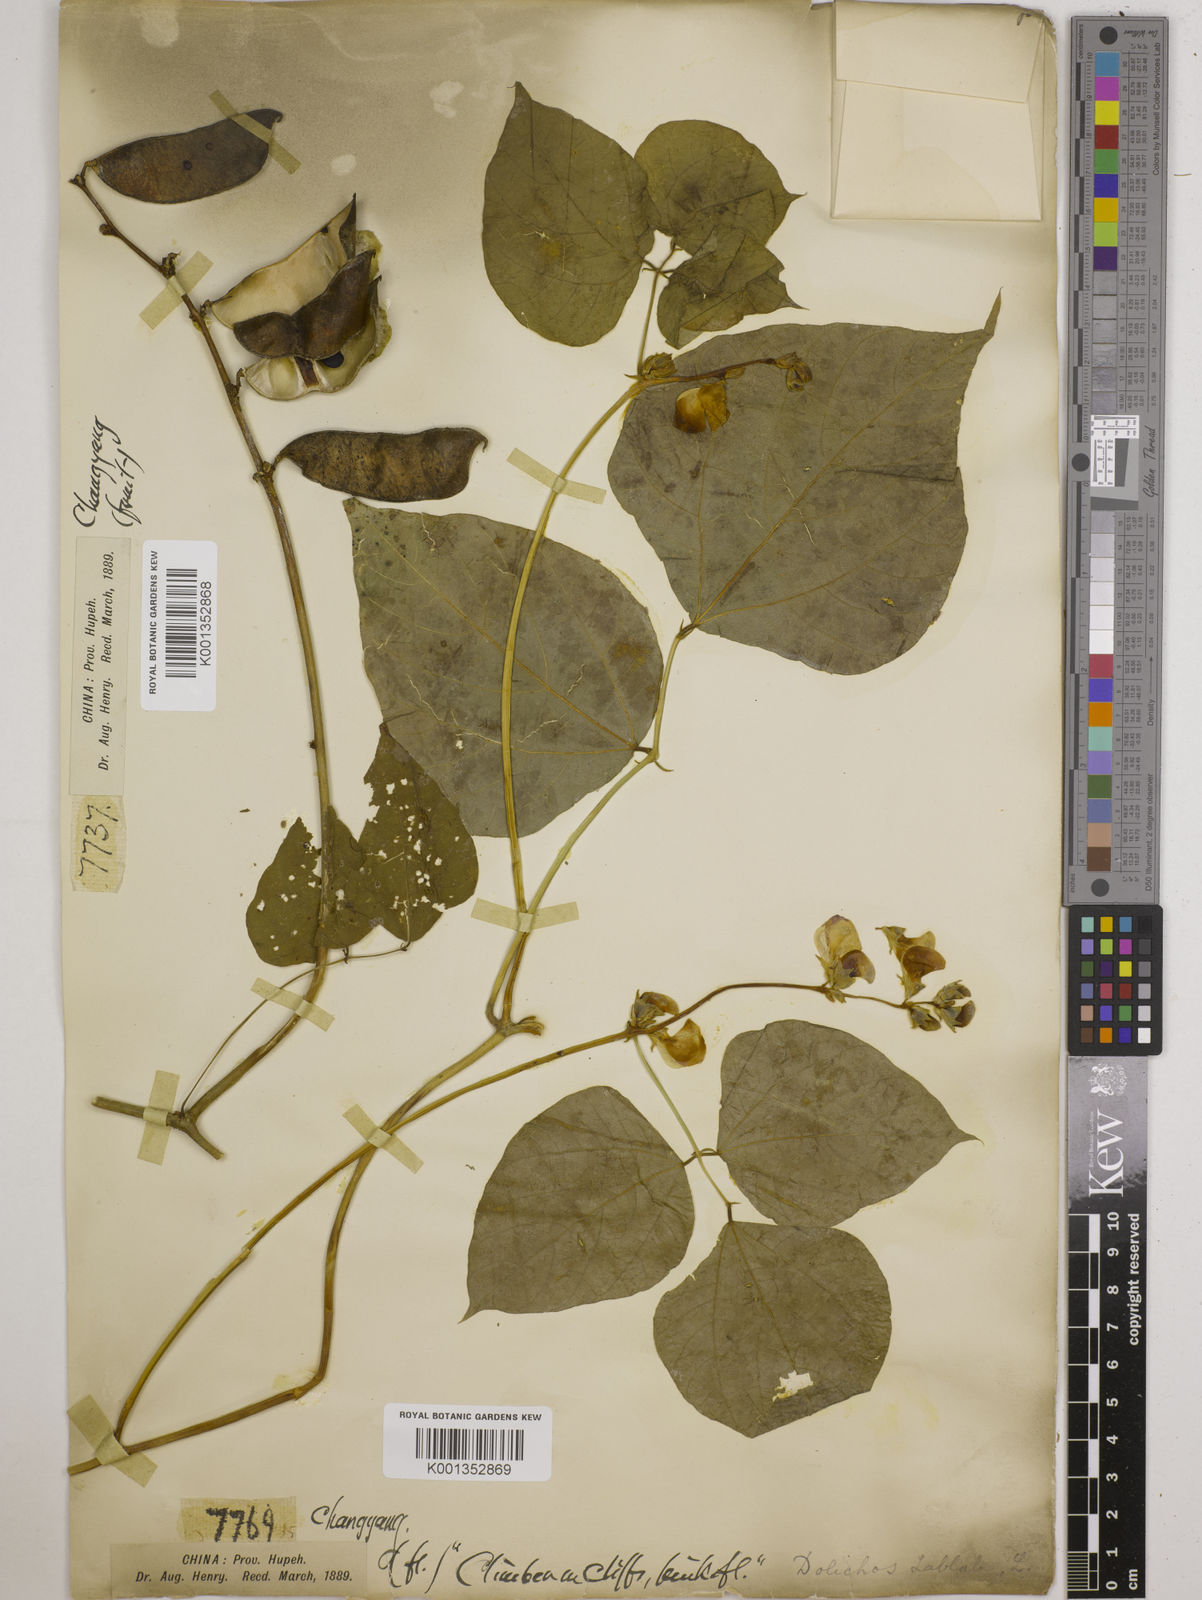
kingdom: Plantae
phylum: Tracheophyta
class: Magnoliopsida
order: Fabales
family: Fabaceae
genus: Lablab
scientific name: Lablab purpureus
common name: Lablab-bean
